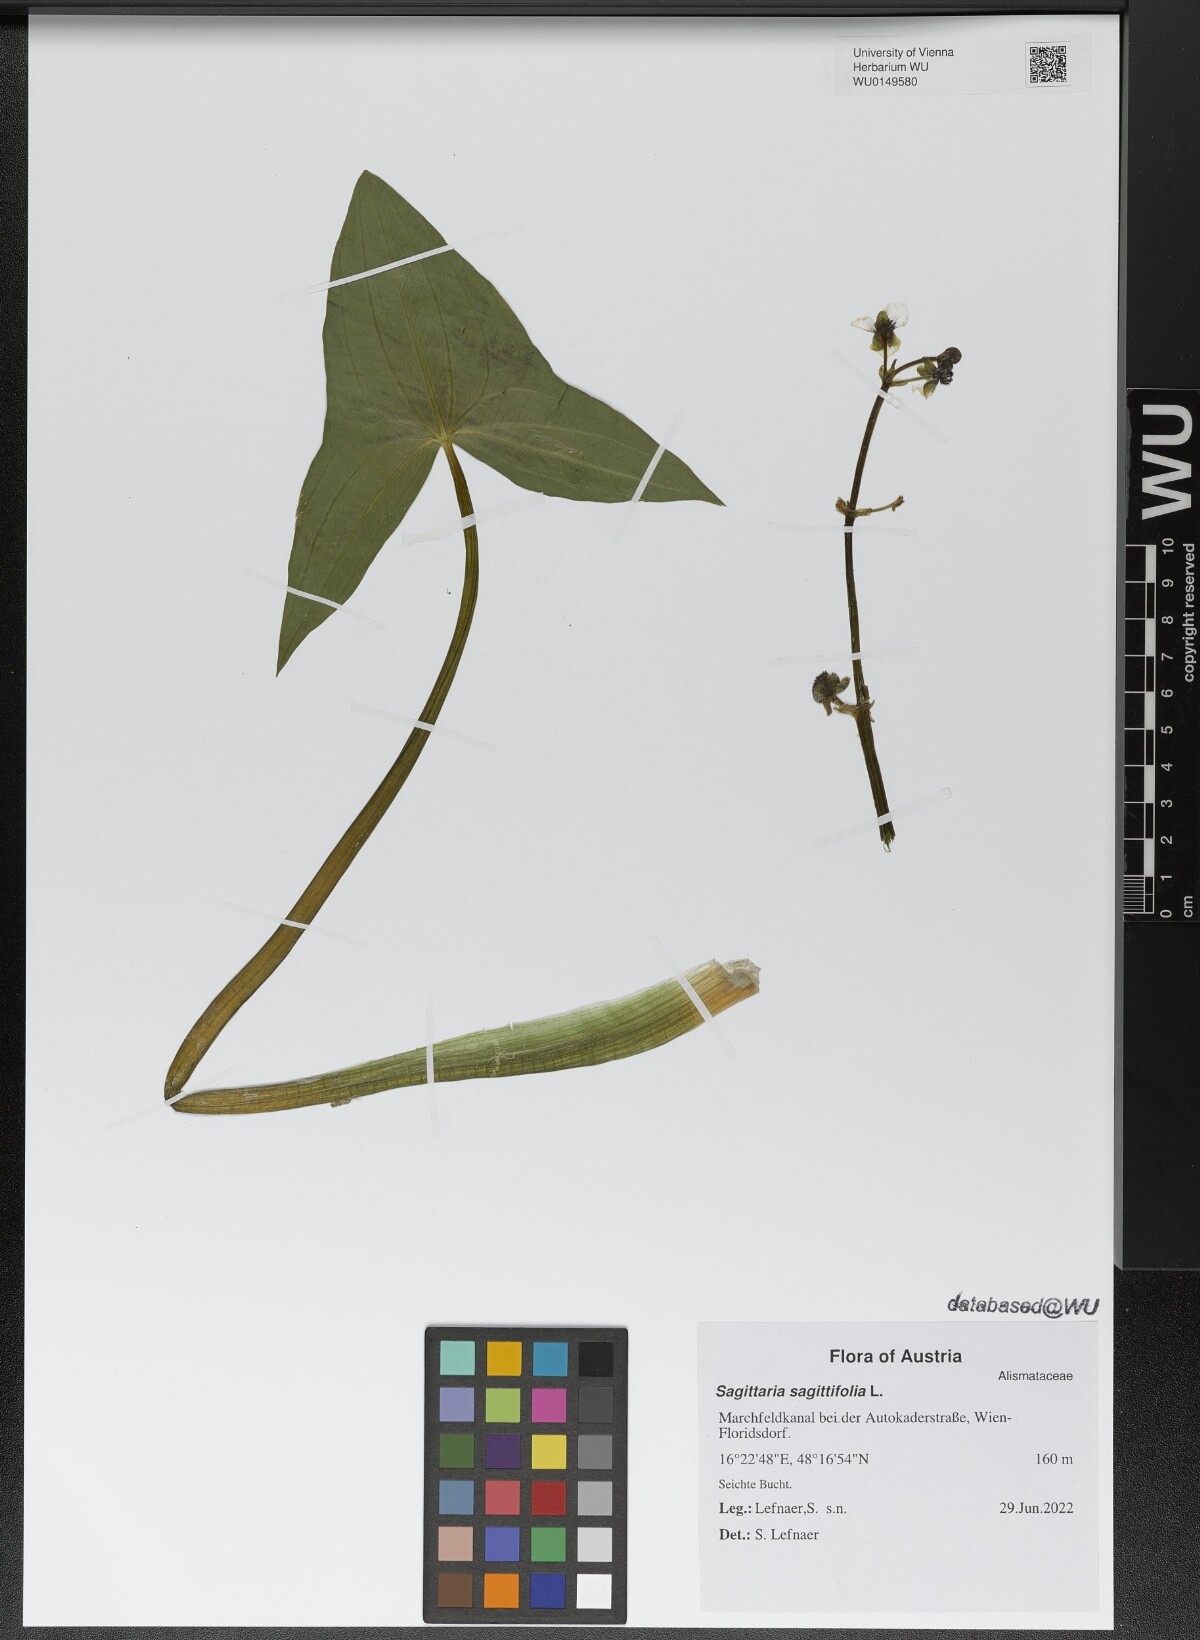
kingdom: Plantae
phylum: Tracheophyta
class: Liliopsida
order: Alismatales
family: Alismataceae
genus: Sagittaria
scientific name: Sagittaria sagittifolia
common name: Arrowhead
